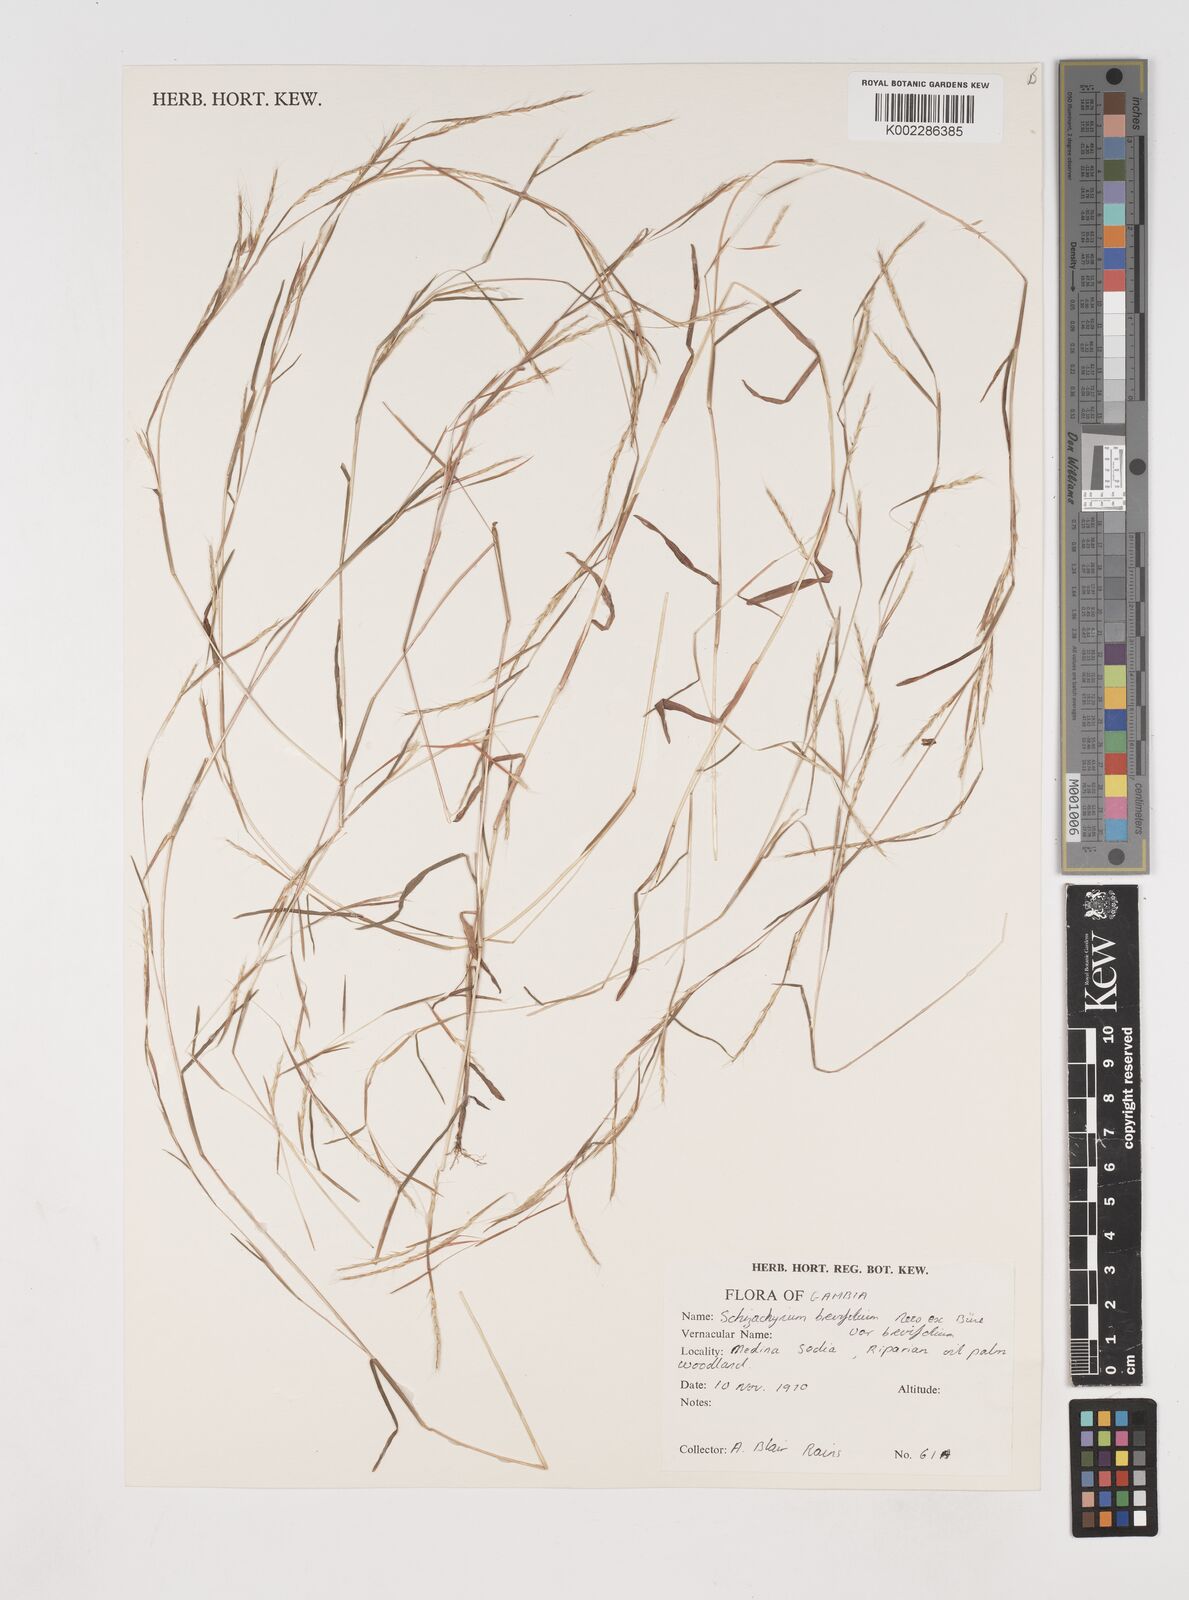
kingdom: Plantae
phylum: Tracheophyta
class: Liliopsida
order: Poales
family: Poaceae
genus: Schizachyrium
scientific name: Schizachyrium brevifolium
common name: Serillo dulce
